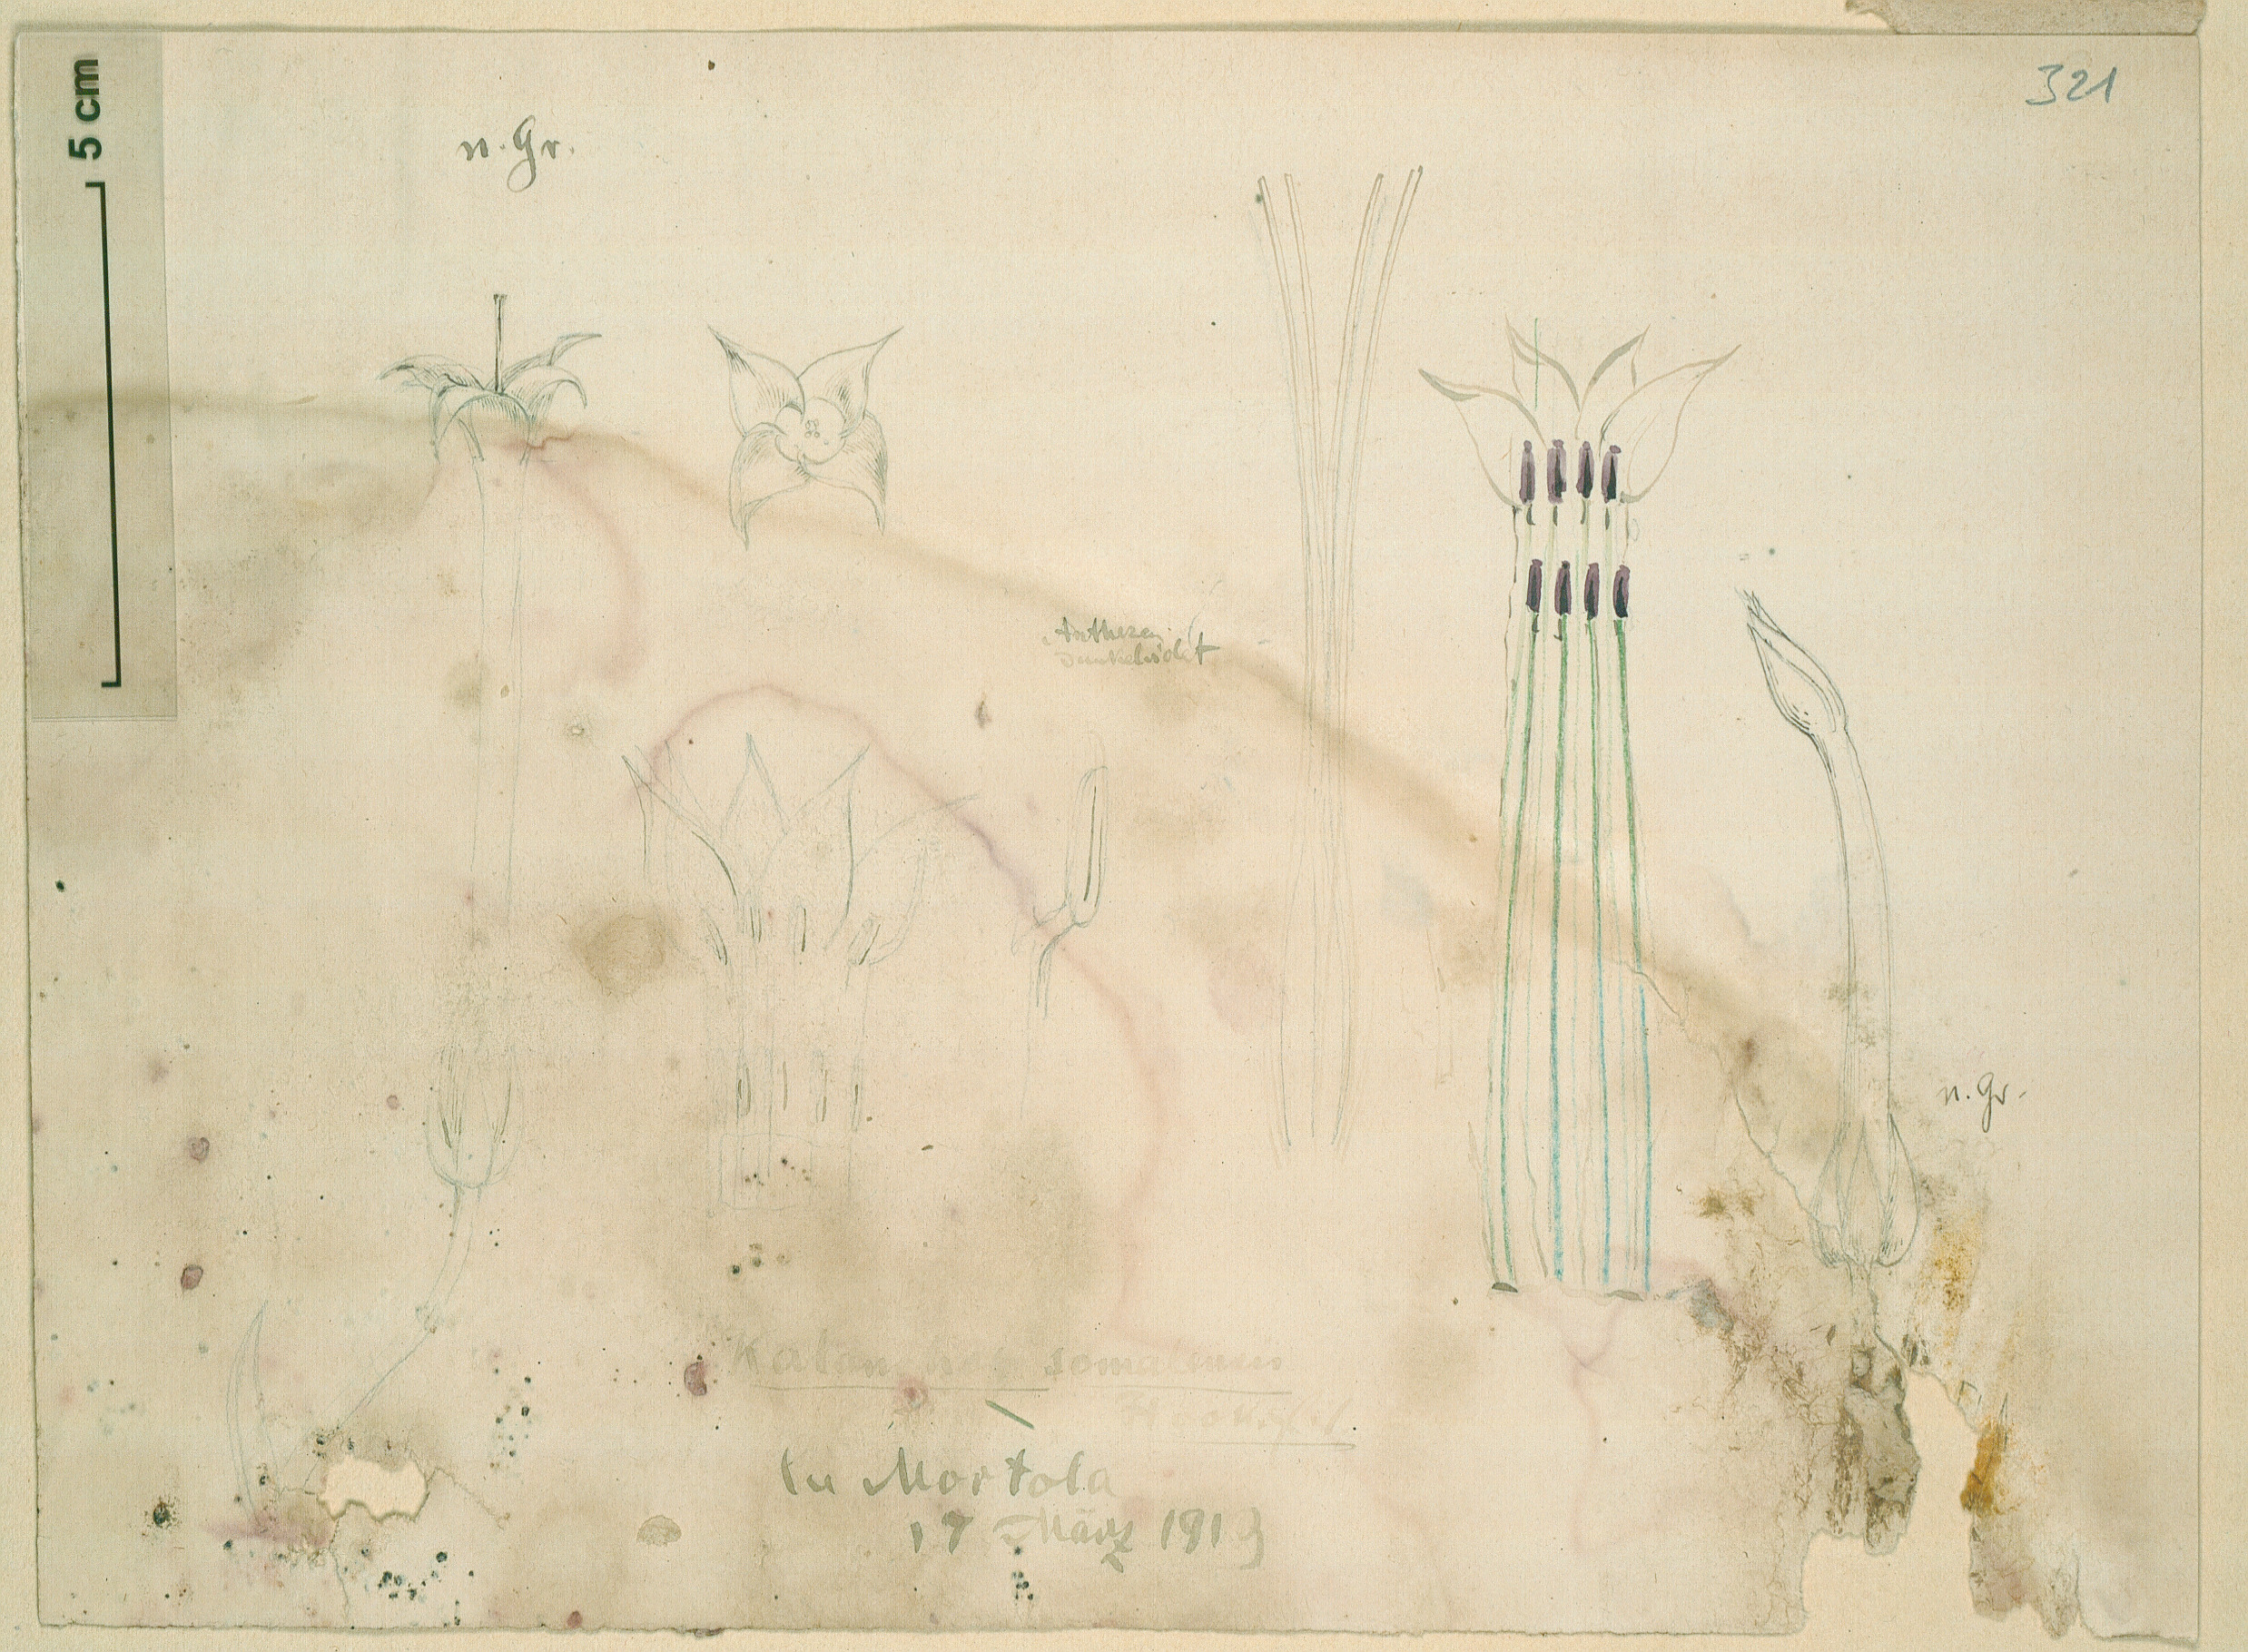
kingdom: Plantae
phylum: Tracheophyta
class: Magnoliopsida
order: Saxifragales
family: Crassulaceae
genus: Kalanchoe
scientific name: Kalanchoe marmorata
